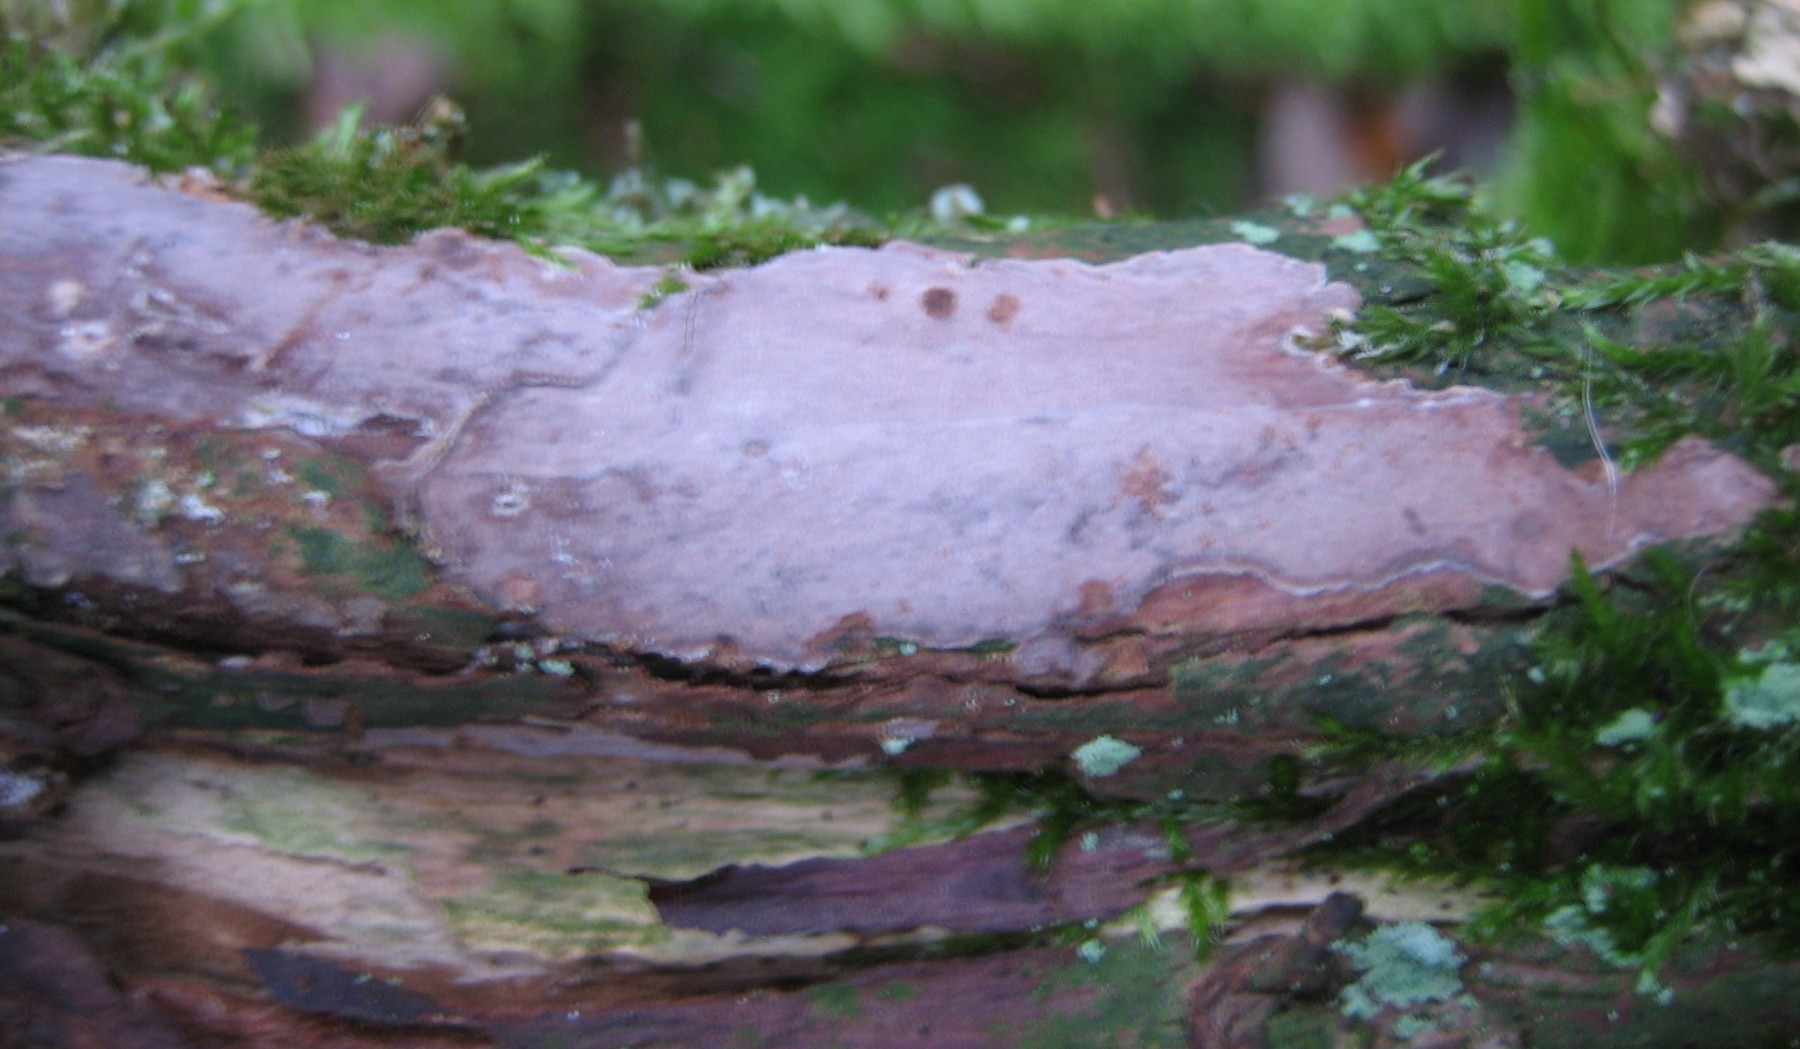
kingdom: Fungi
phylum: Basidiomycota
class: Agaricomycetes
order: Russulales
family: Echinodontiaceae
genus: Amylostereum
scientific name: Amylostereum laevigatum
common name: ene-lædersvamp
